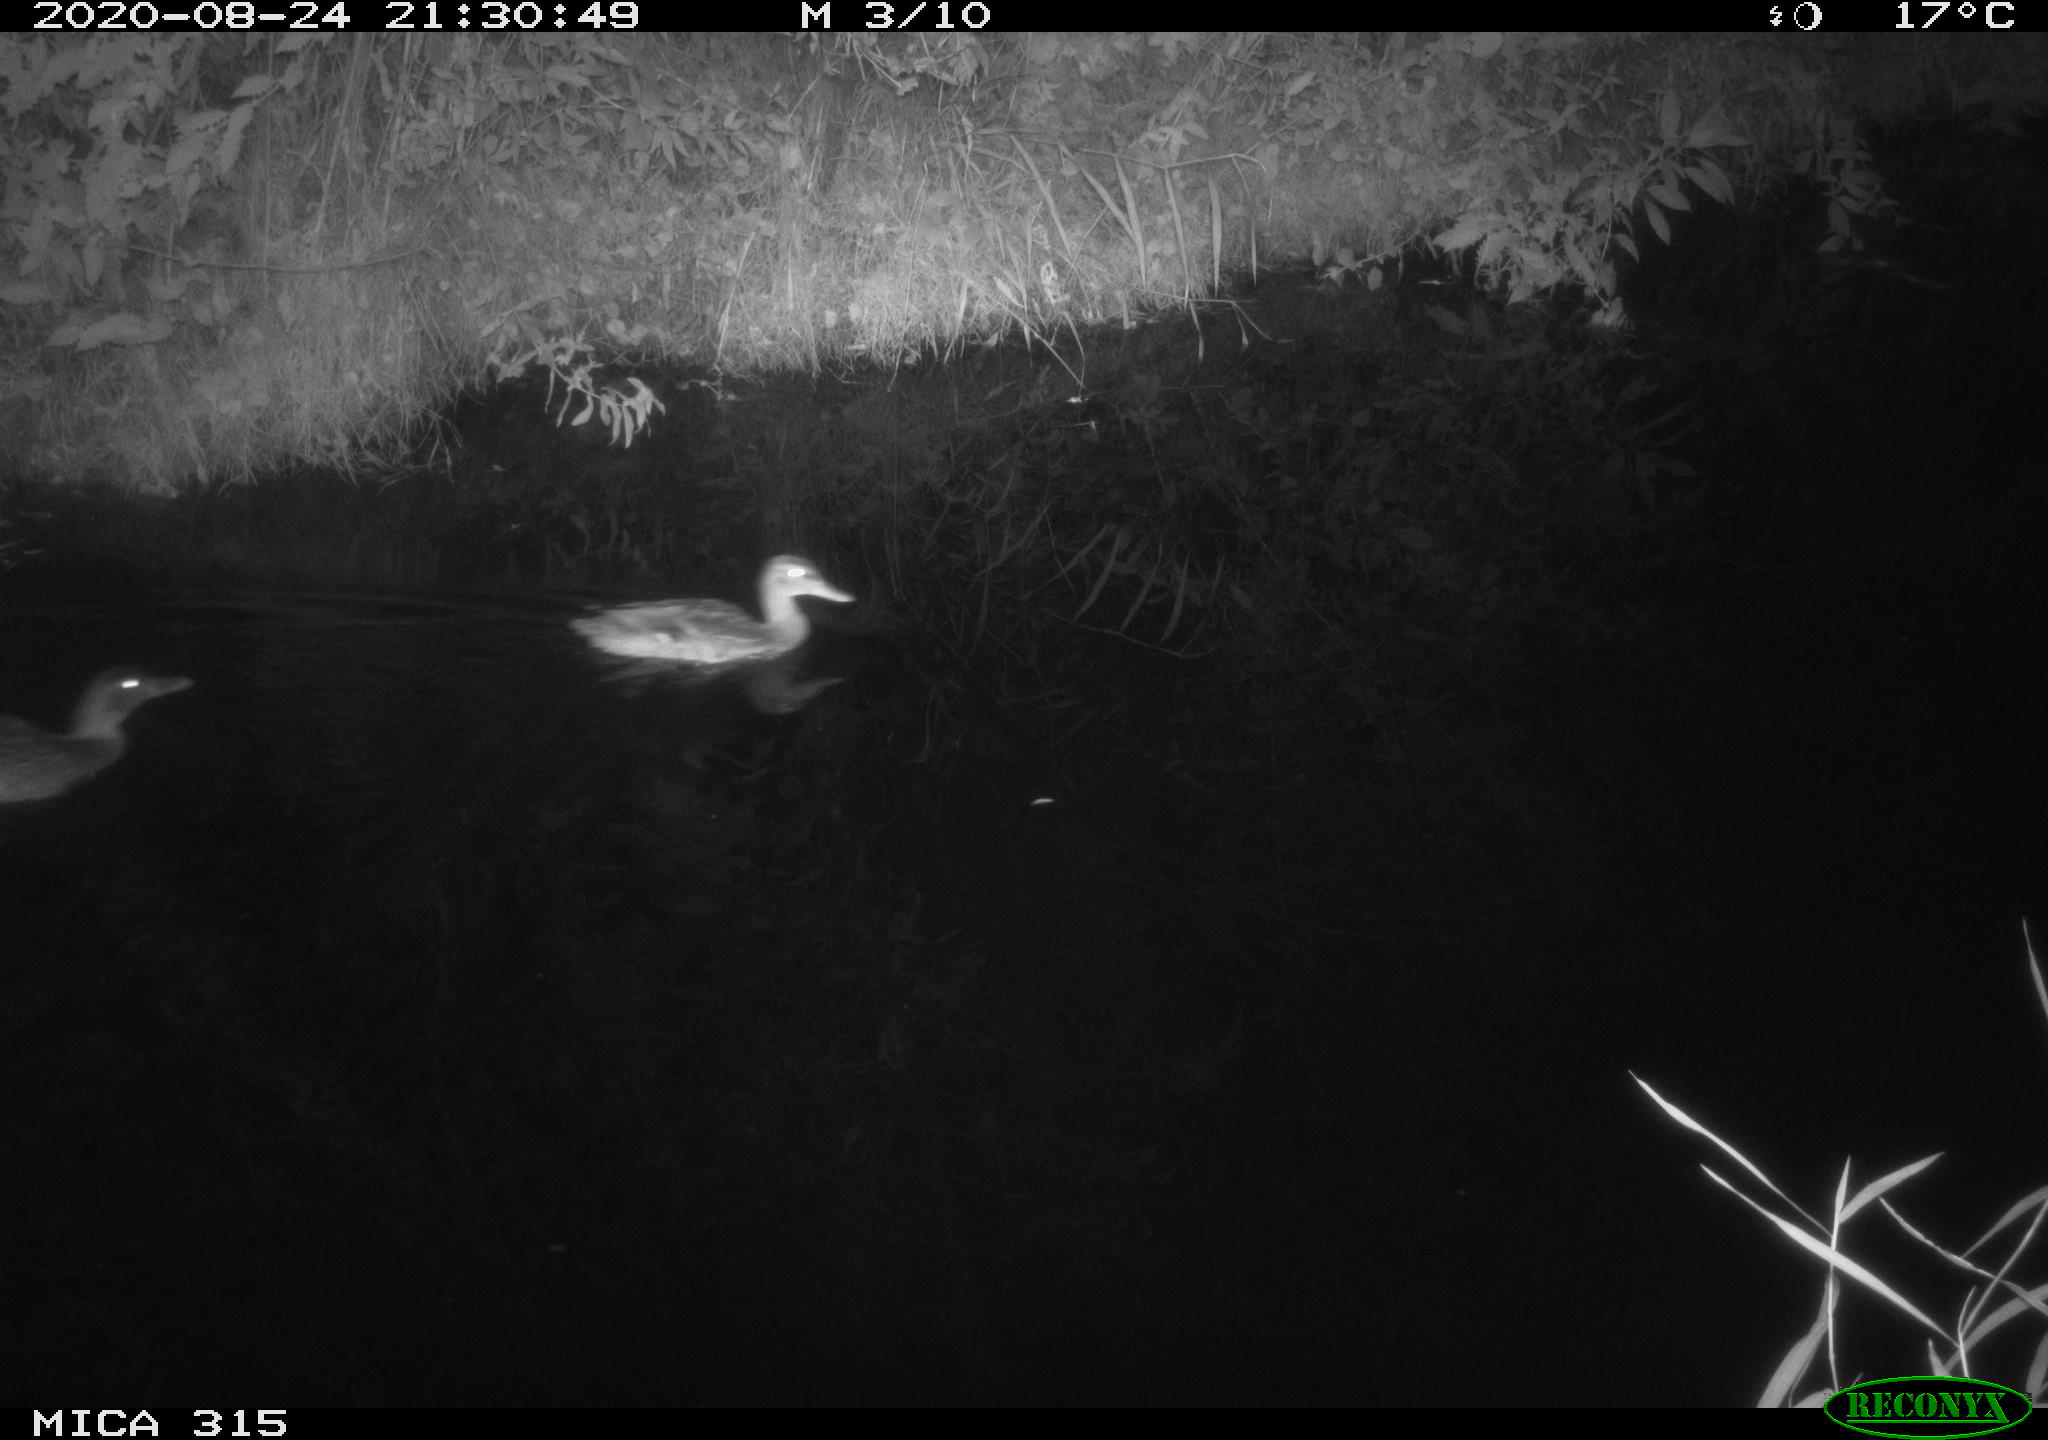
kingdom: Animalia
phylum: Chordata
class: Aves
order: Anseriformes
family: Anatidae
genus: Anas
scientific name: Anas platyrhynchos
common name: Mallard
